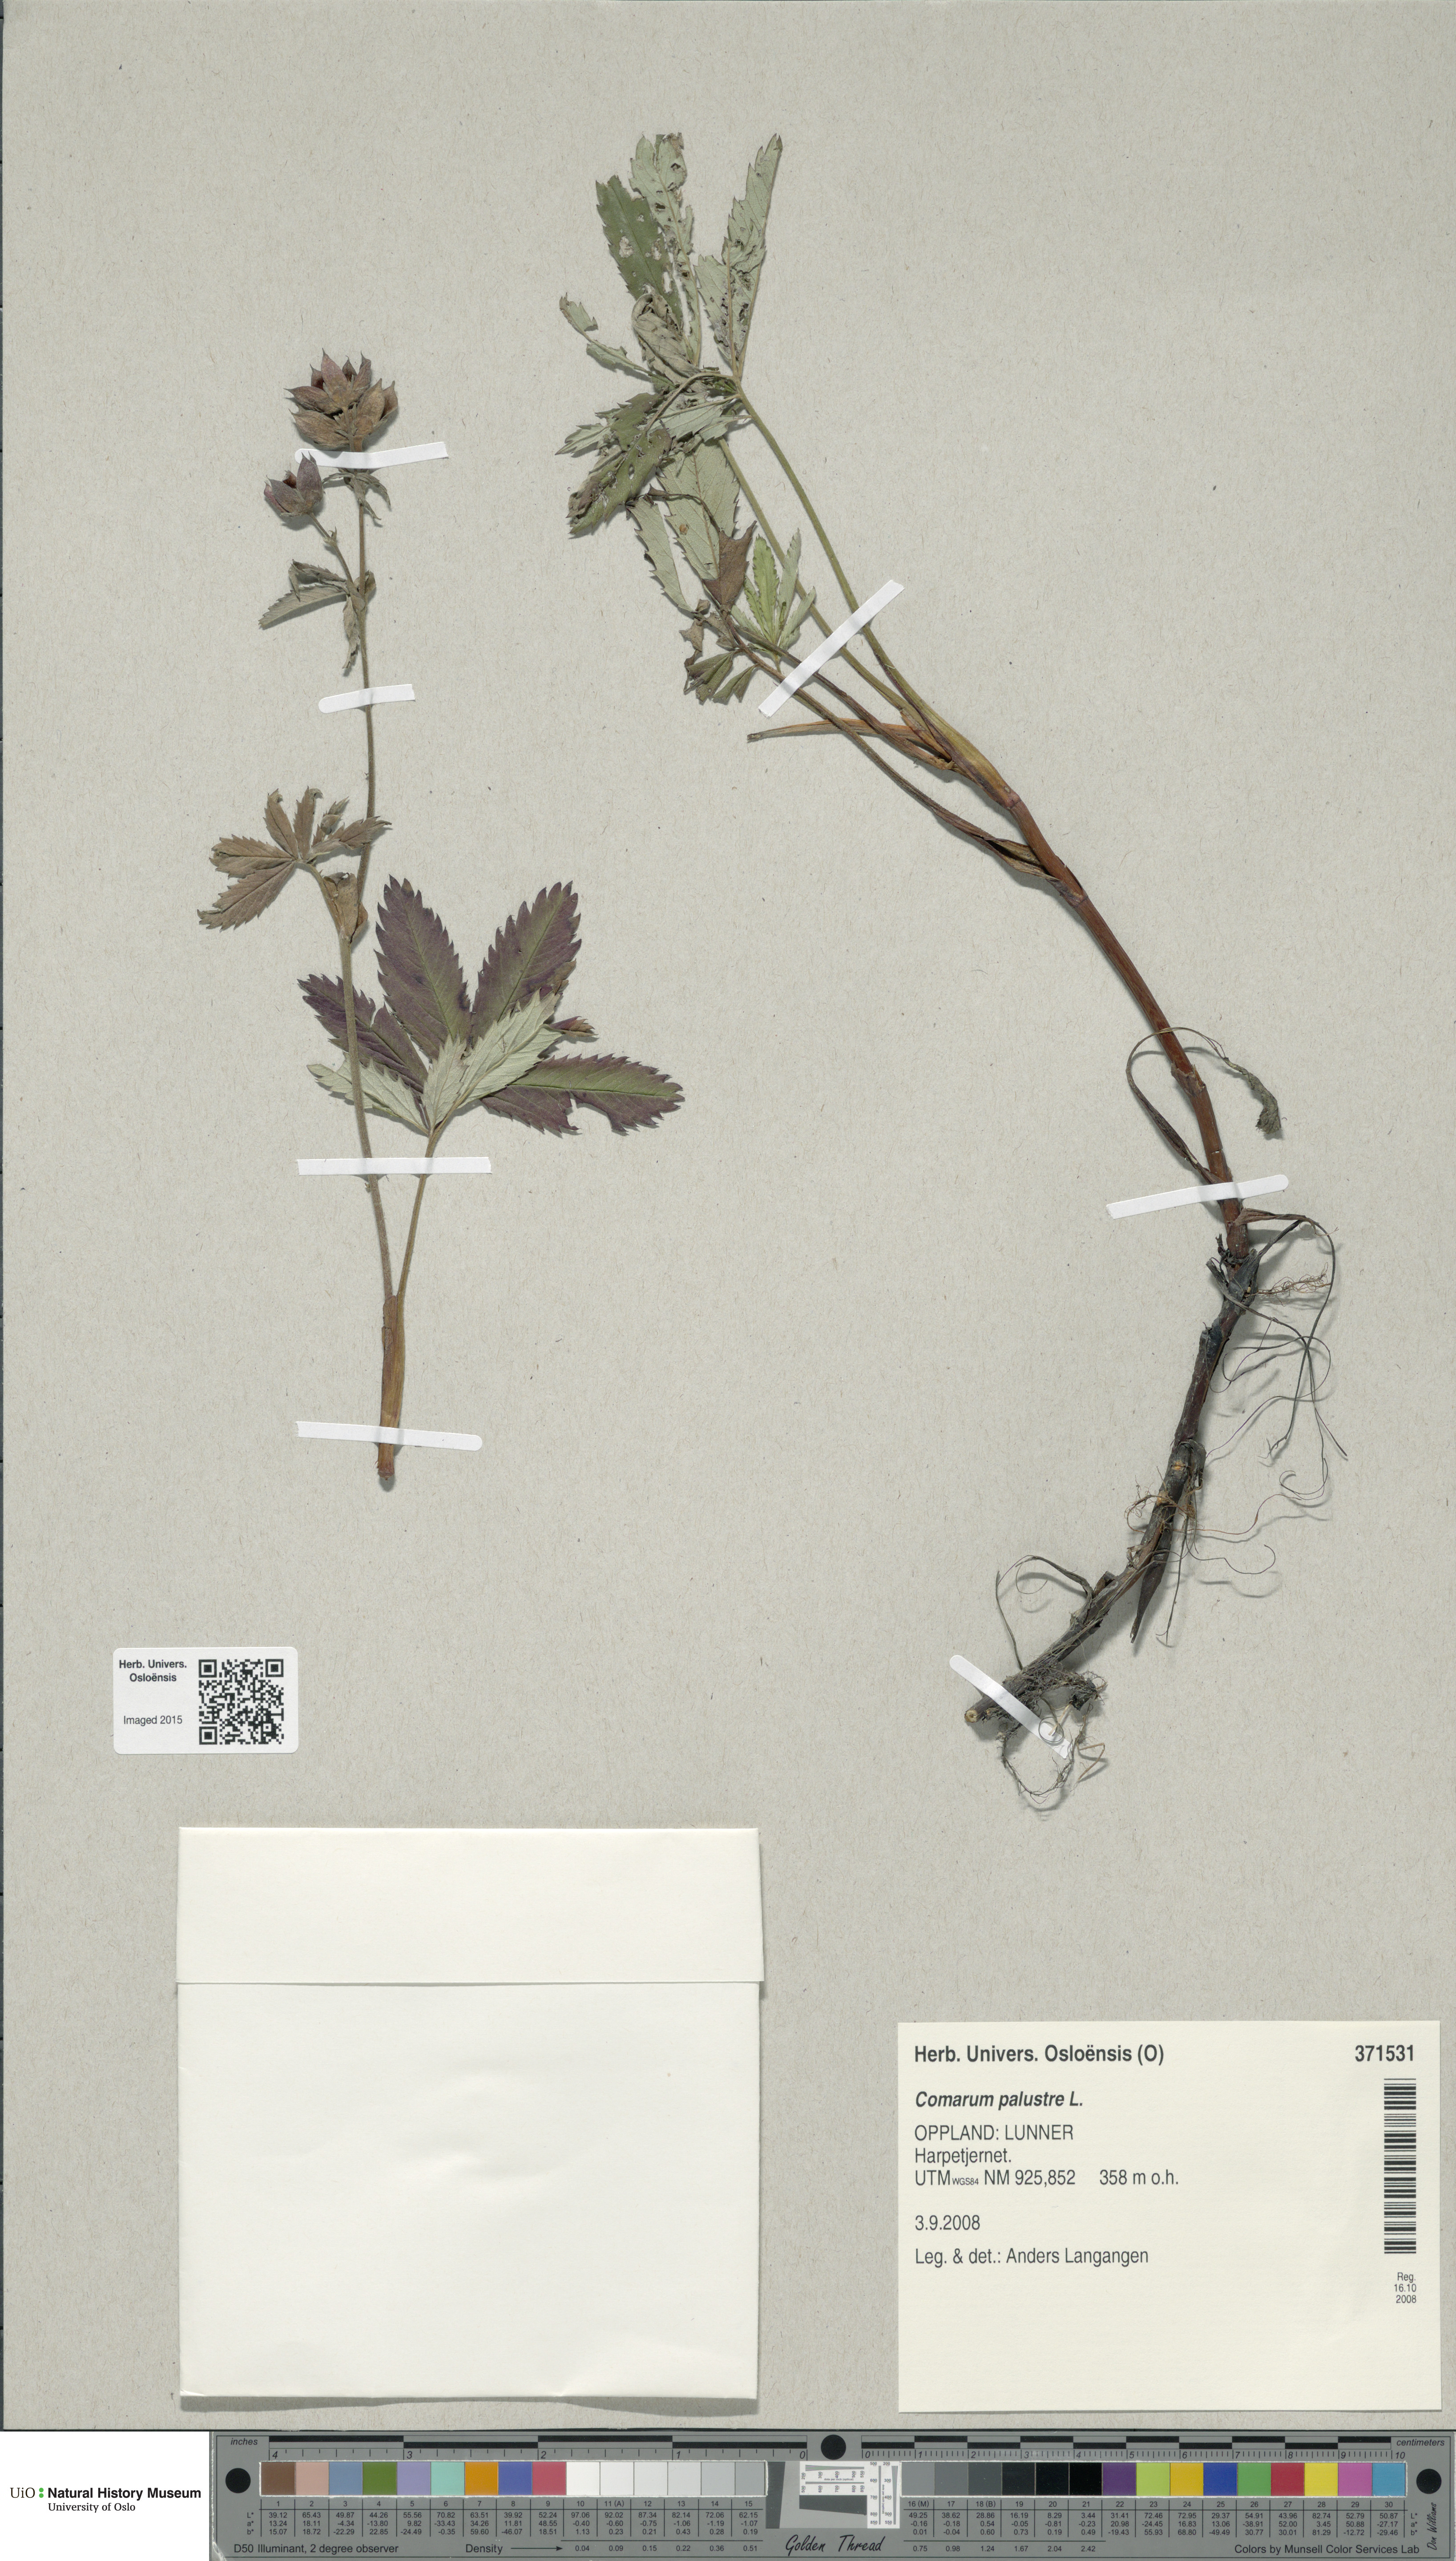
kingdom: Plantae
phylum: Tracheophyta
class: Magnoliopsida
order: Rosales
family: Rosaceae
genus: Comarum
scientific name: Comarum palustre
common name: Marsh cinquefoil
